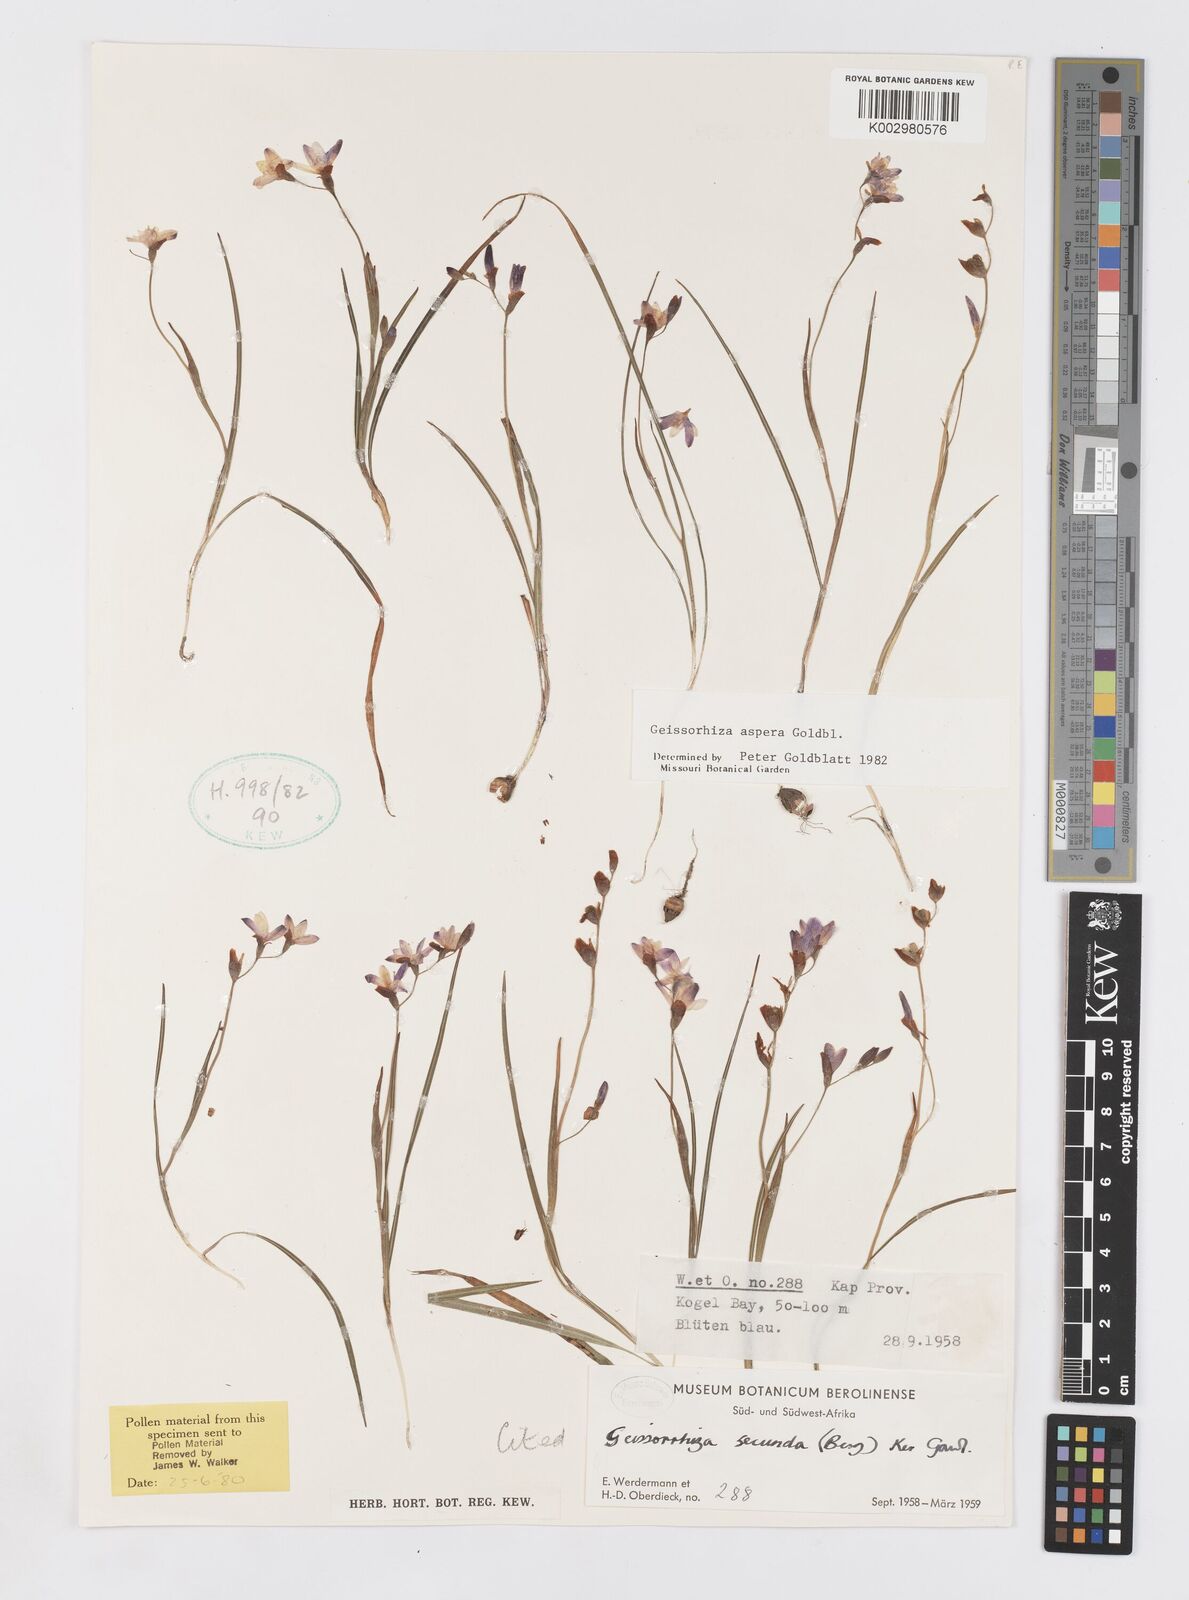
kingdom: Plantae
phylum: Tracheophyta
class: Liliopsida
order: Asparagales
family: Iridaceae
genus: Geissorhiza
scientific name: Geissorhiza aspera
